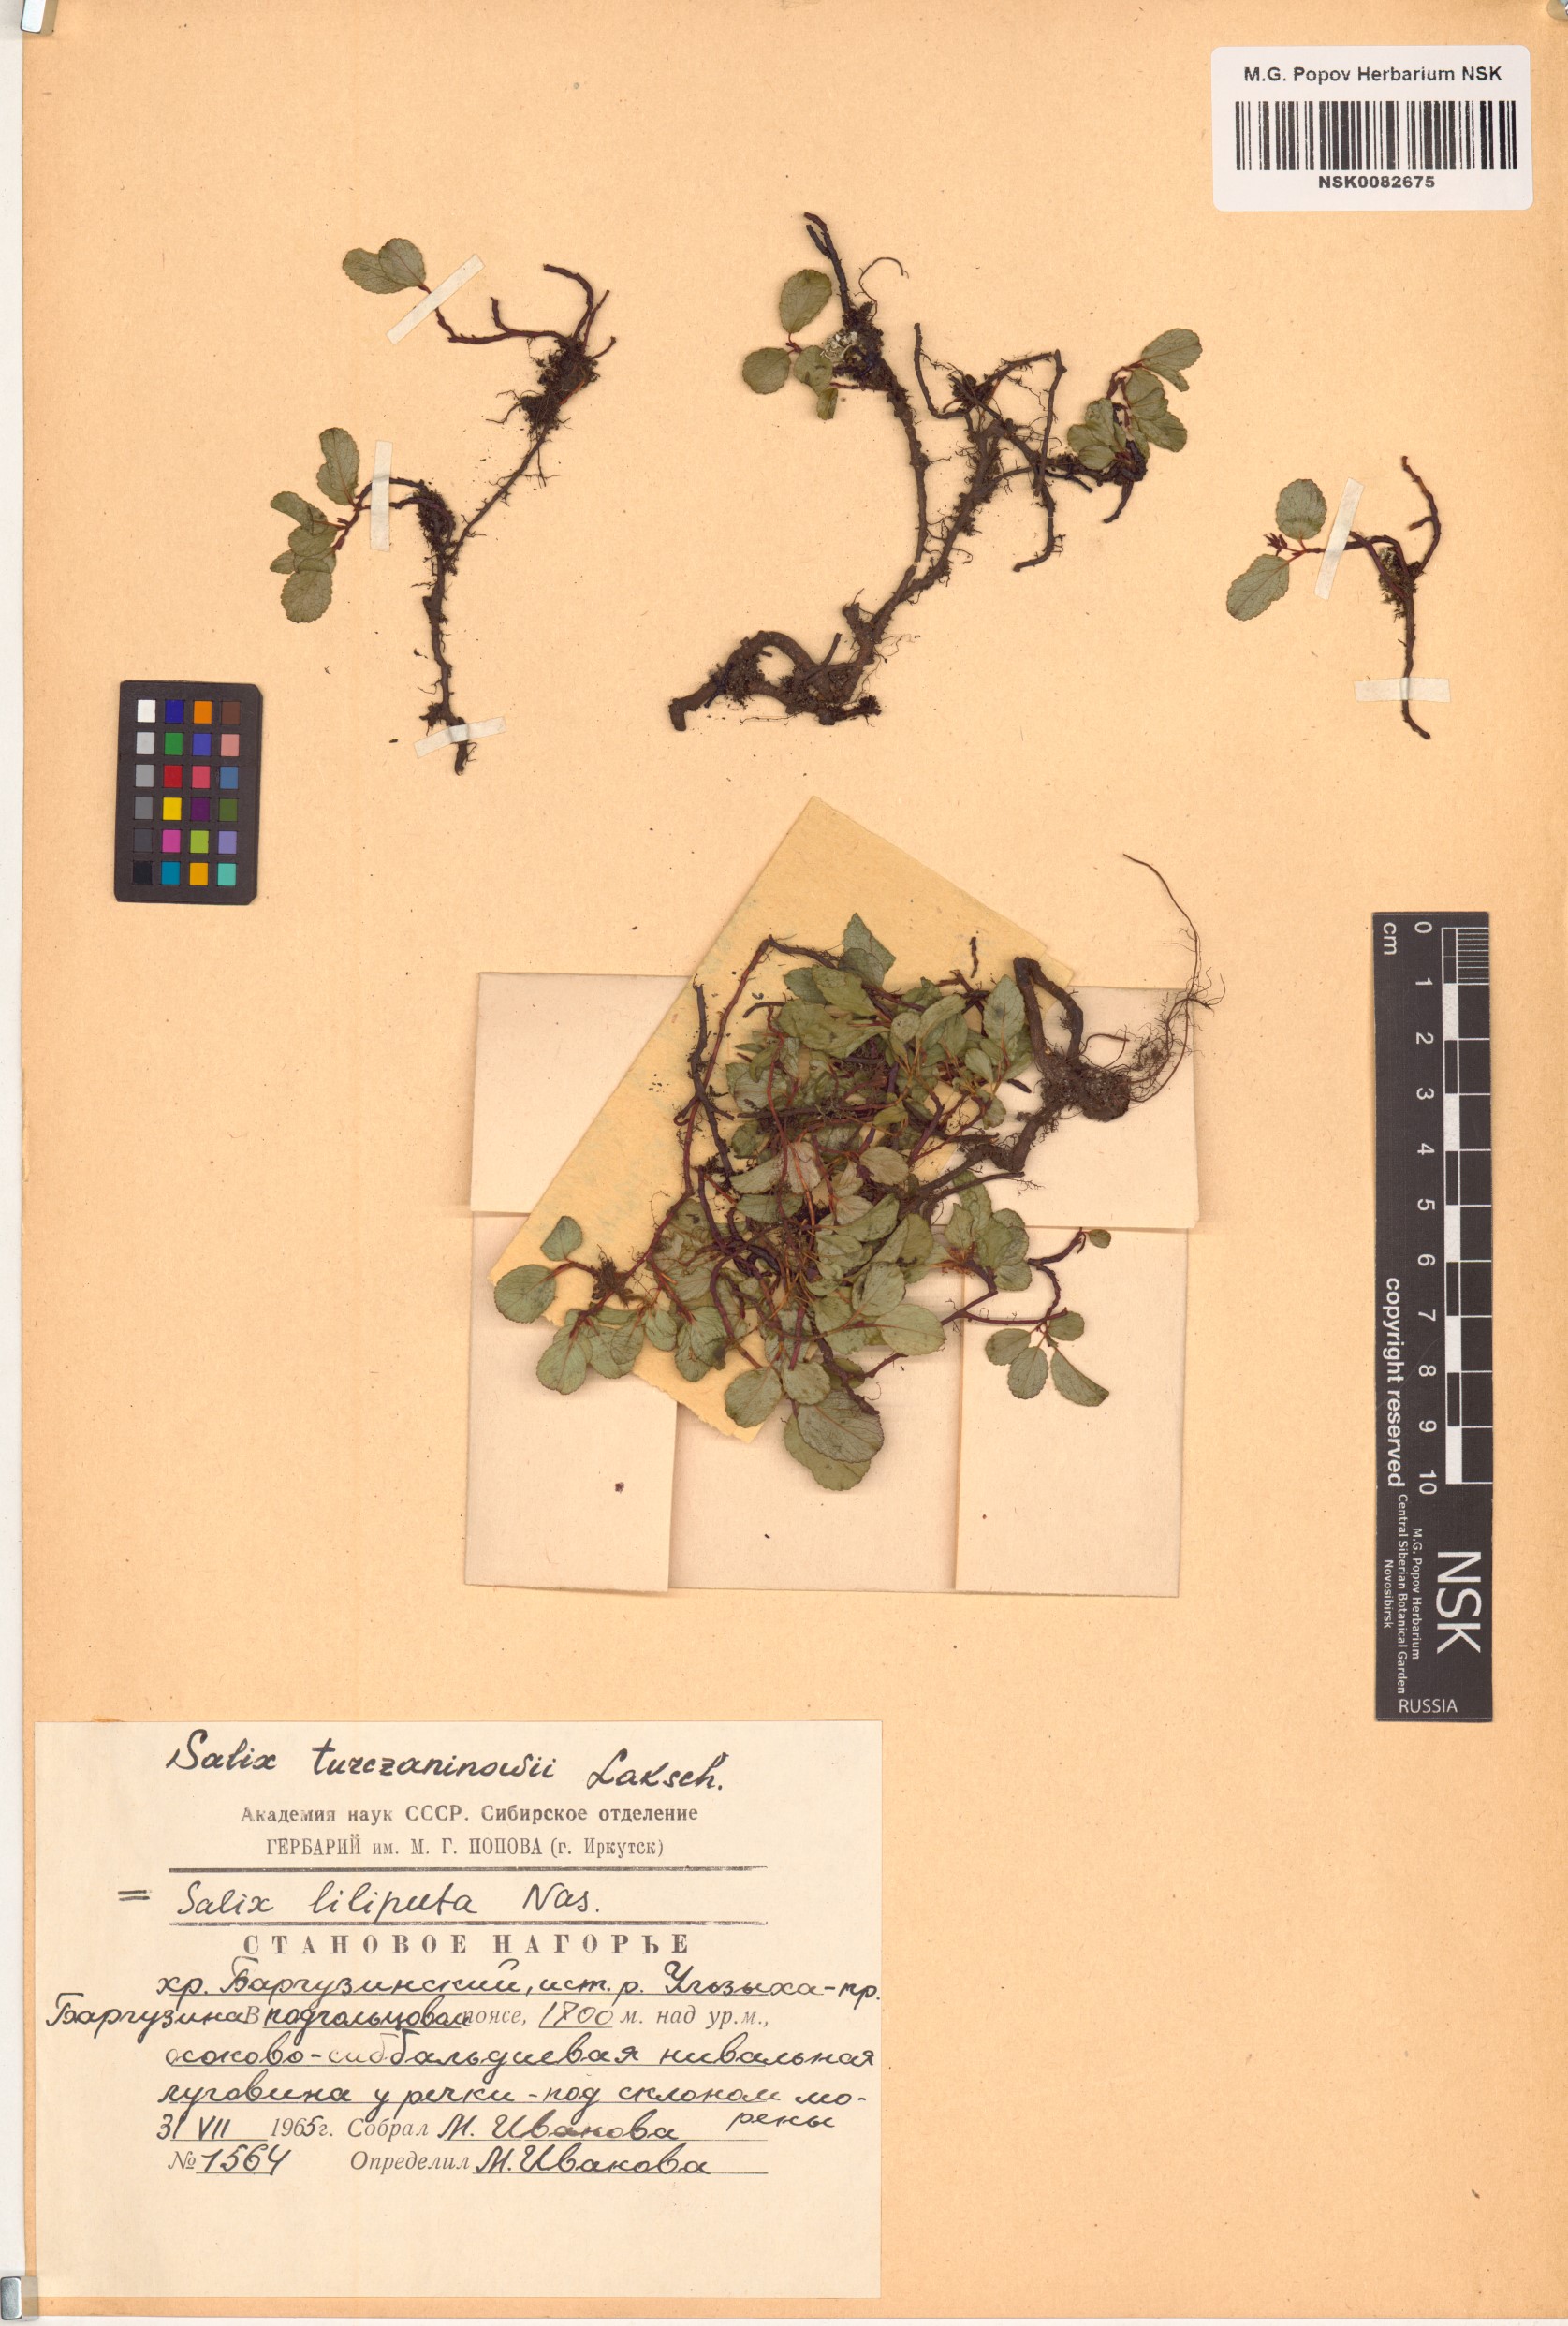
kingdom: Plantae
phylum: Tracheophyta
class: Magnoliopsida
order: Malpighiales
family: Salicaceae
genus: Salix
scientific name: Salix turczaninowii
